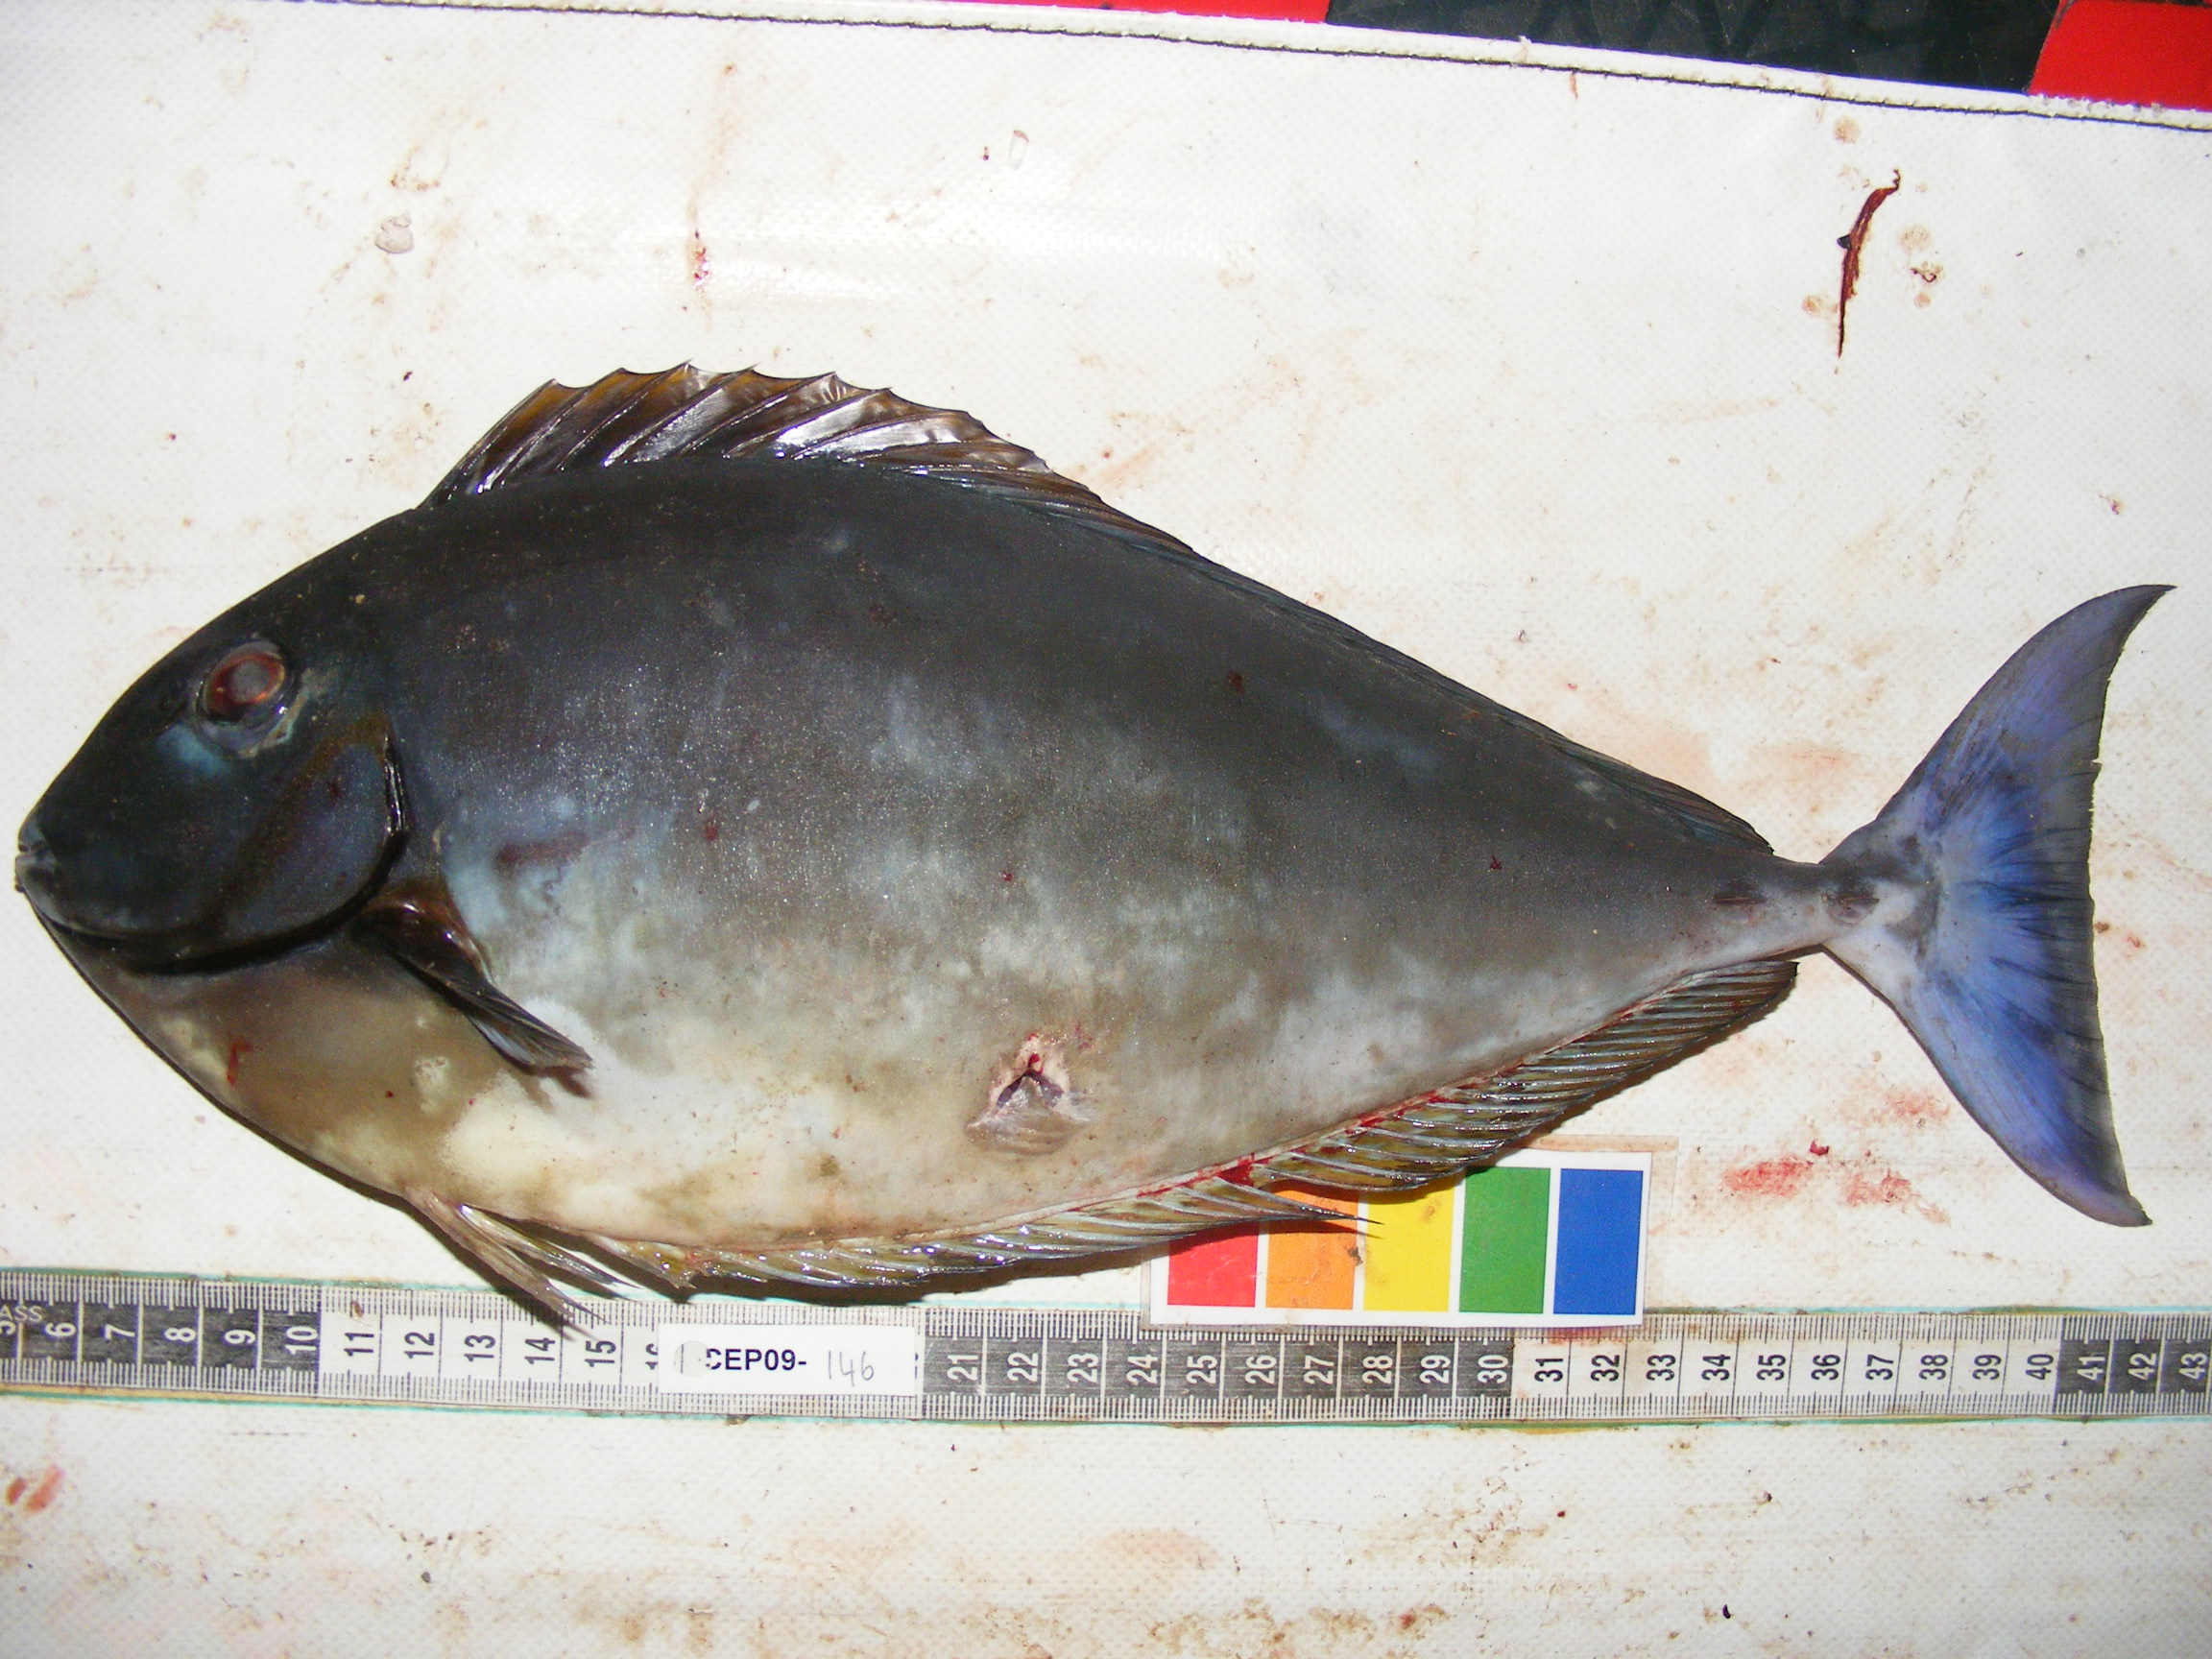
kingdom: Animalia
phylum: Chordata
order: Perciformes
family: Acanthuridae
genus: Naso
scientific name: Naso hexacanthus
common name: Black unicornfish
